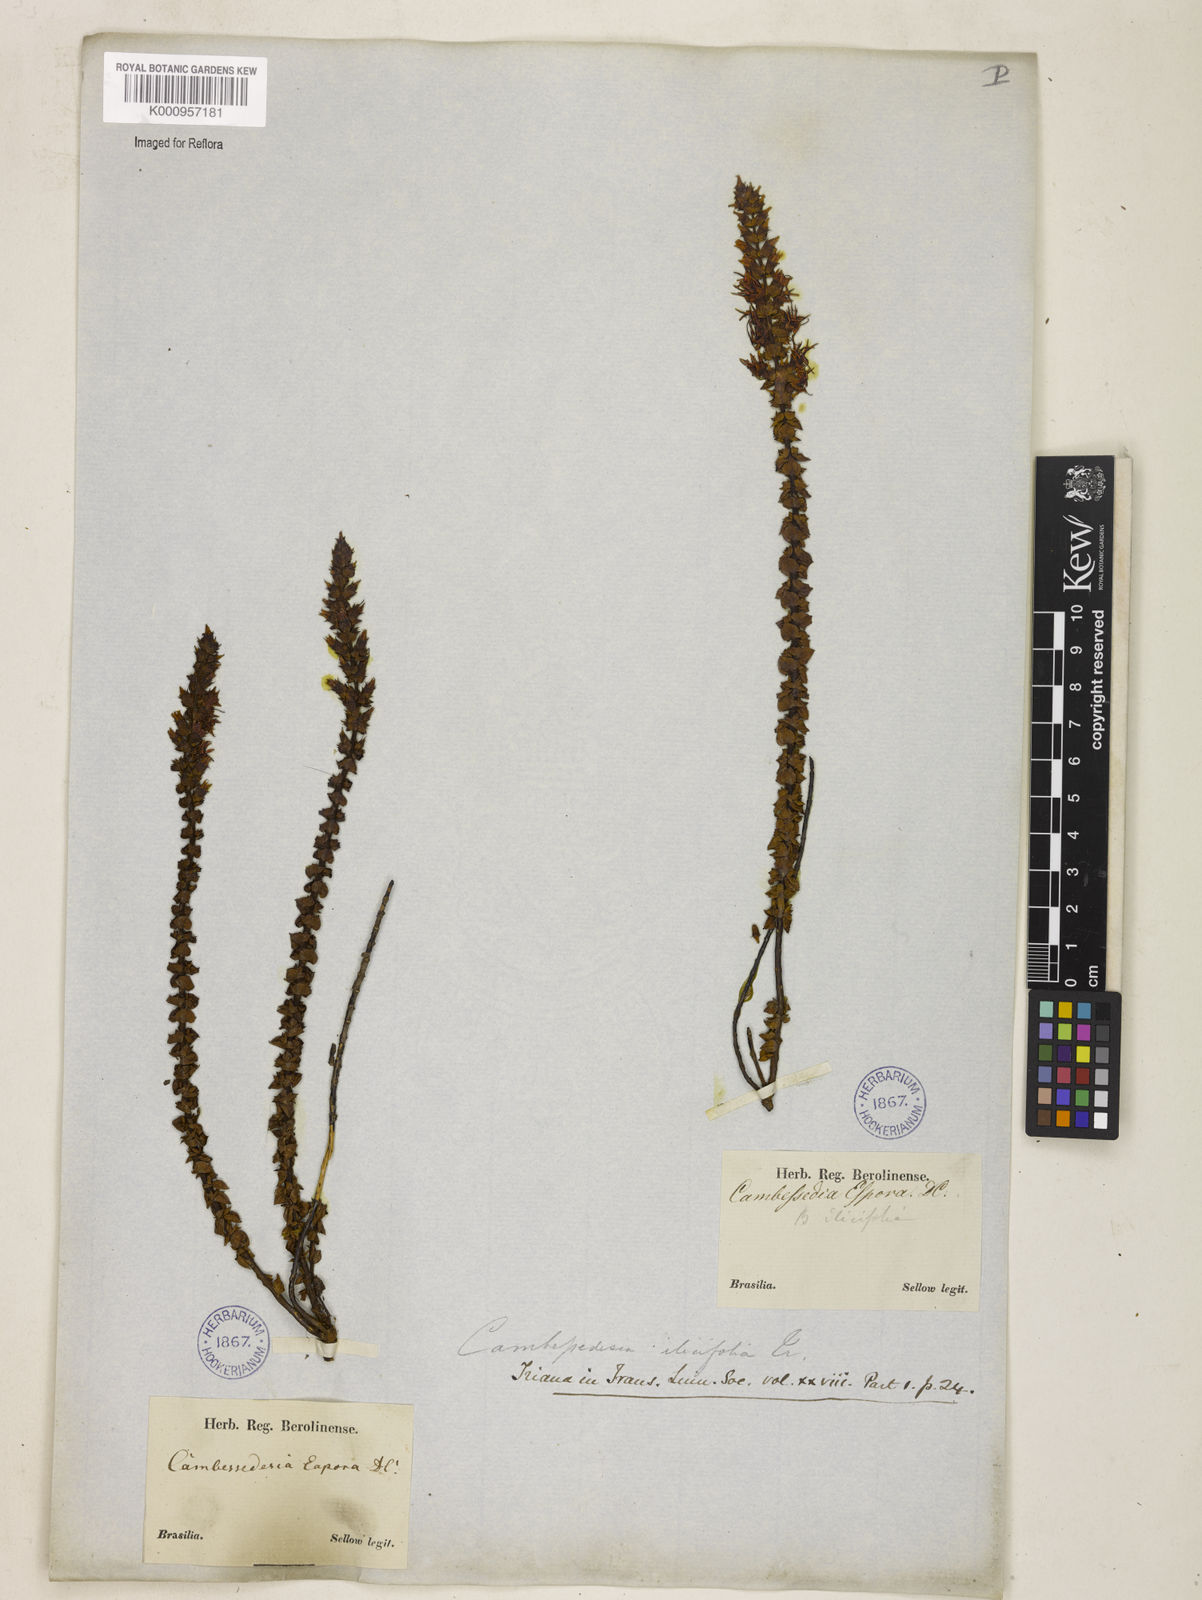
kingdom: Plantae
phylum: Tracheophyta
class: Magnoliopsida
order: Myrtales
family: Melastomataceae
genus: Cambessedesia
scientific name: Cambessedesia espora
